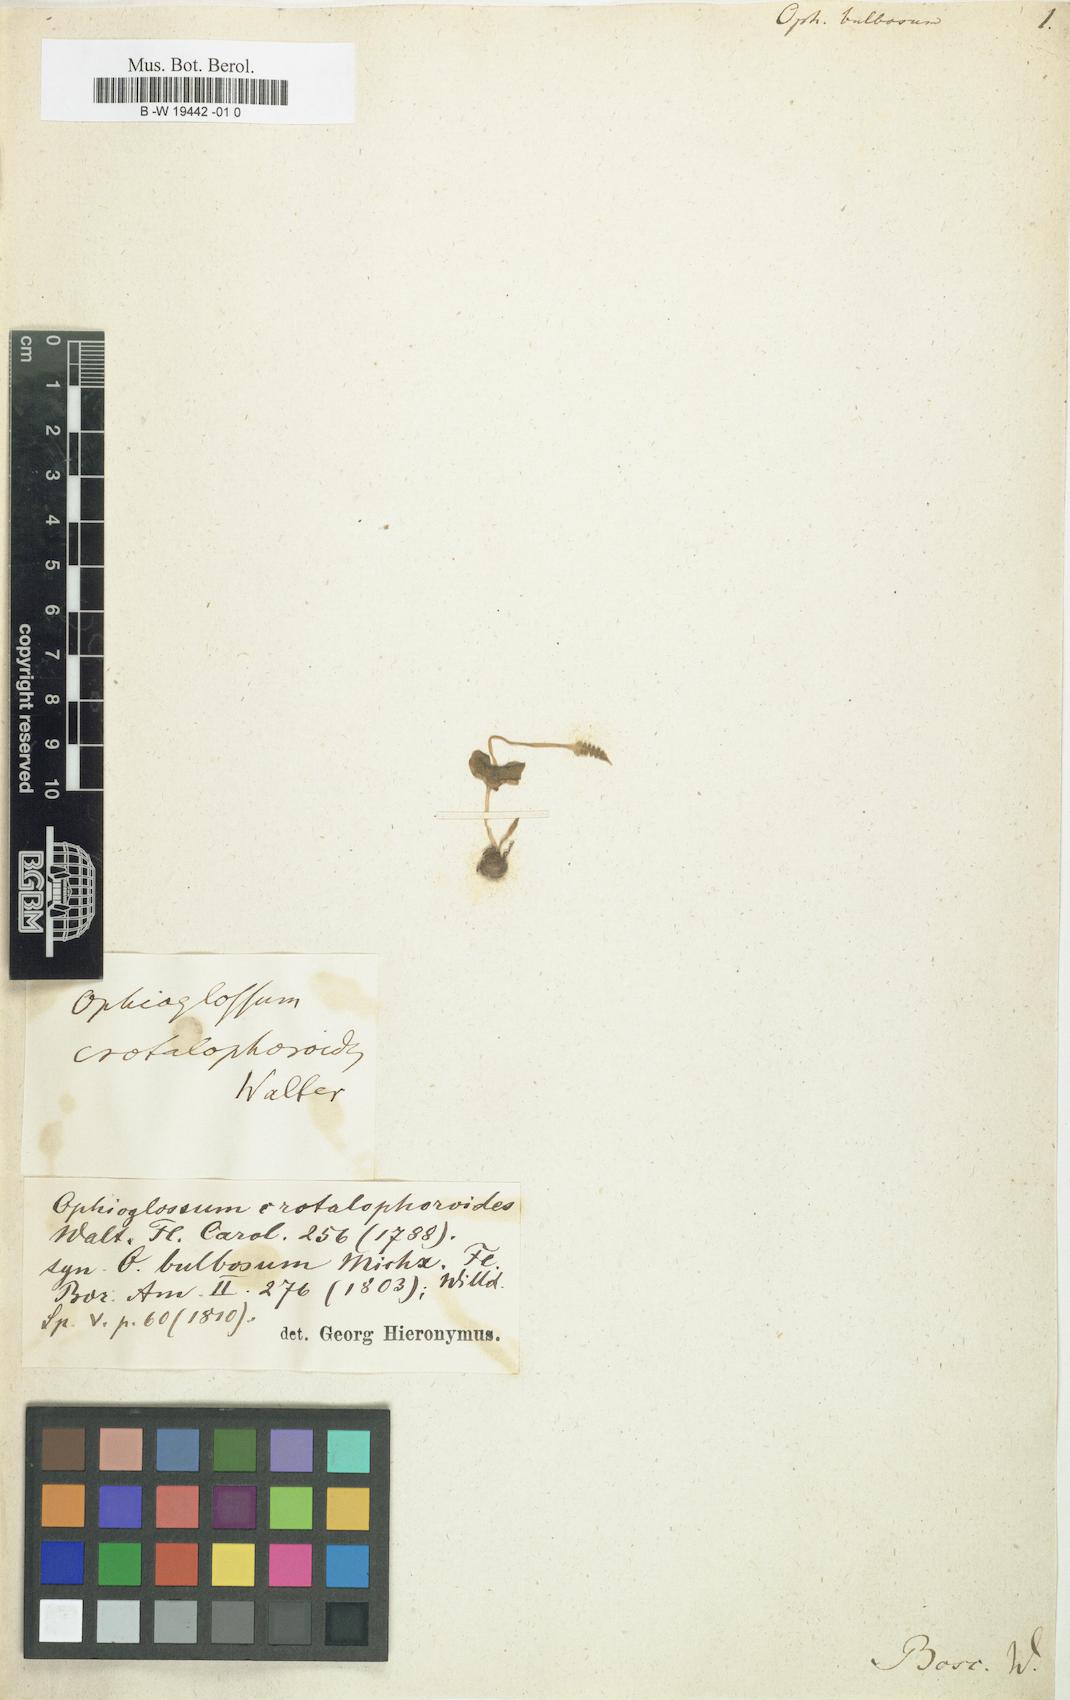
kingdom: Plantae
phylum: Tracheophyta
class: Polypodiopsida
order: Ophioglossales
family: Ophioglossaceae
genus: Ophioglossum
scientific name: Ophioglossum
